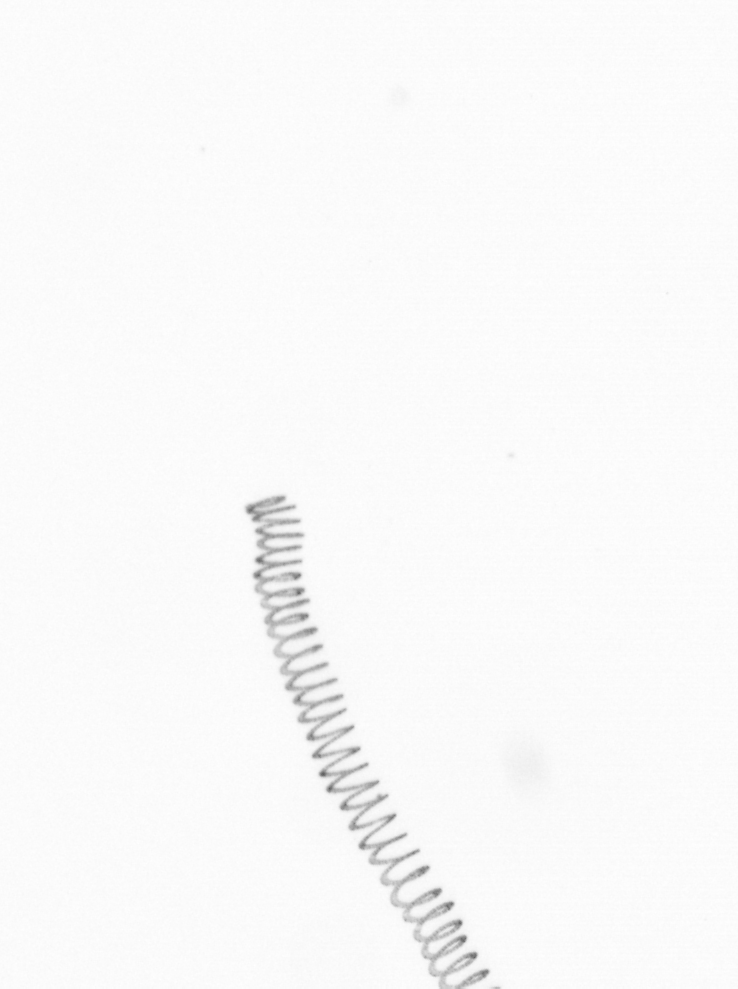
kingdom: Chromista
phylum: Ochrophyta
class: Bacillariophyceae
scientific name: Bacillariophyceae
